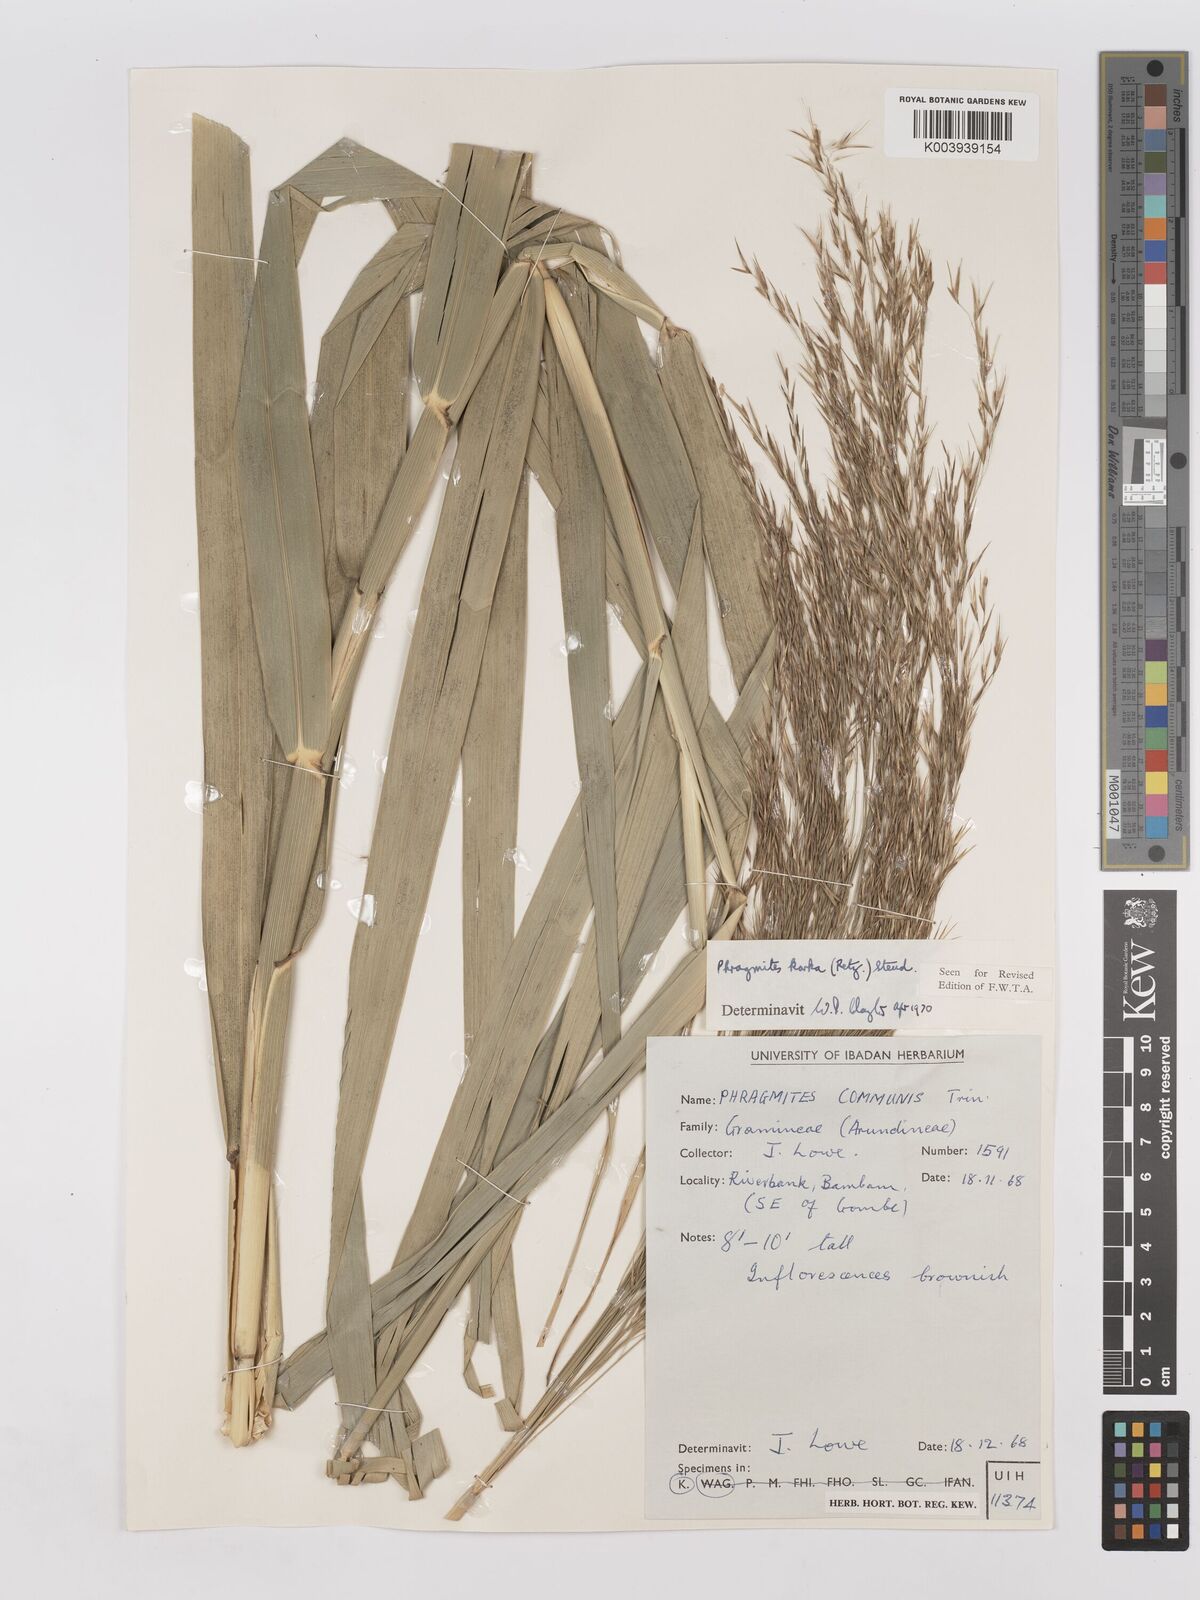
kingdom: Plantae
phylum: Tracheophyta
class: Liliopsida
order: Poales
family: Poaceae
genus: Phragmites
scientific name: Phragmites karka
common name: Tropical reed
